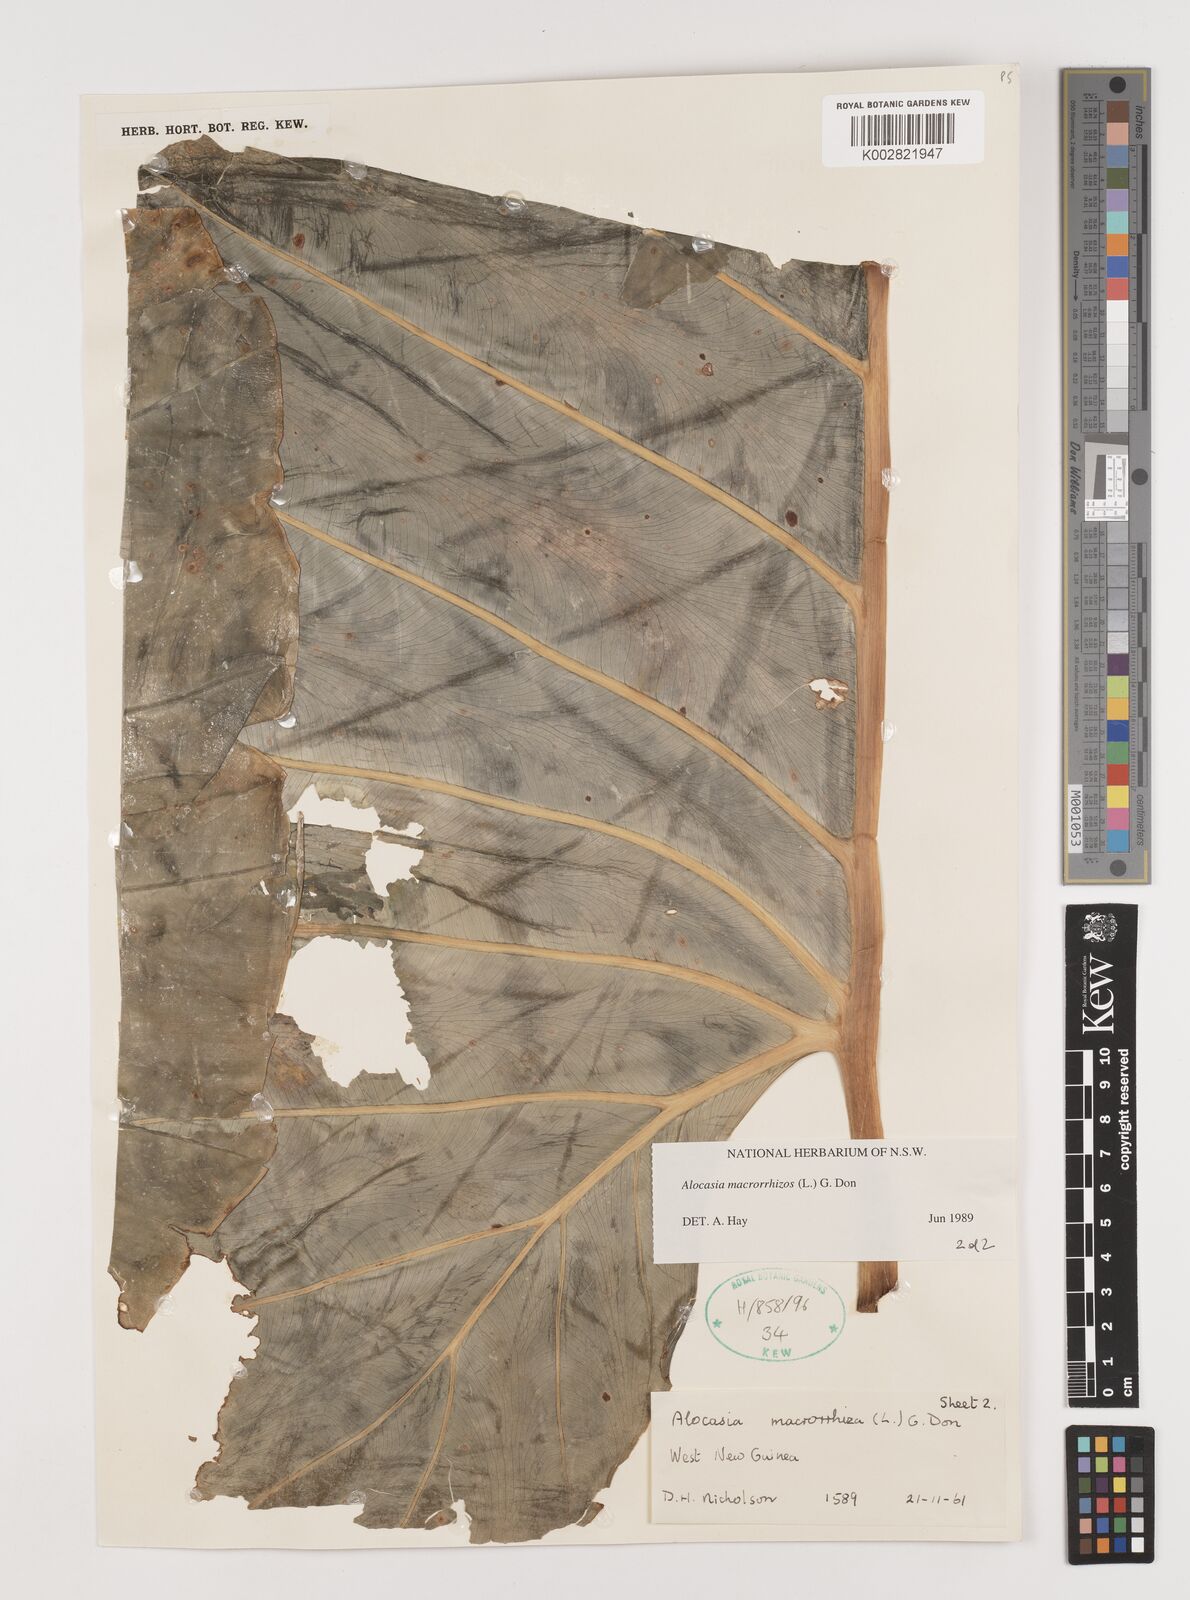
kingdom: Plantae
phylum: Tracheophyta
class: Liliopsida
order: Alismatales
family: Araceae
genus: Alocasia
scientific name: Alocasia macrorrhizos
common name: Giant taro
